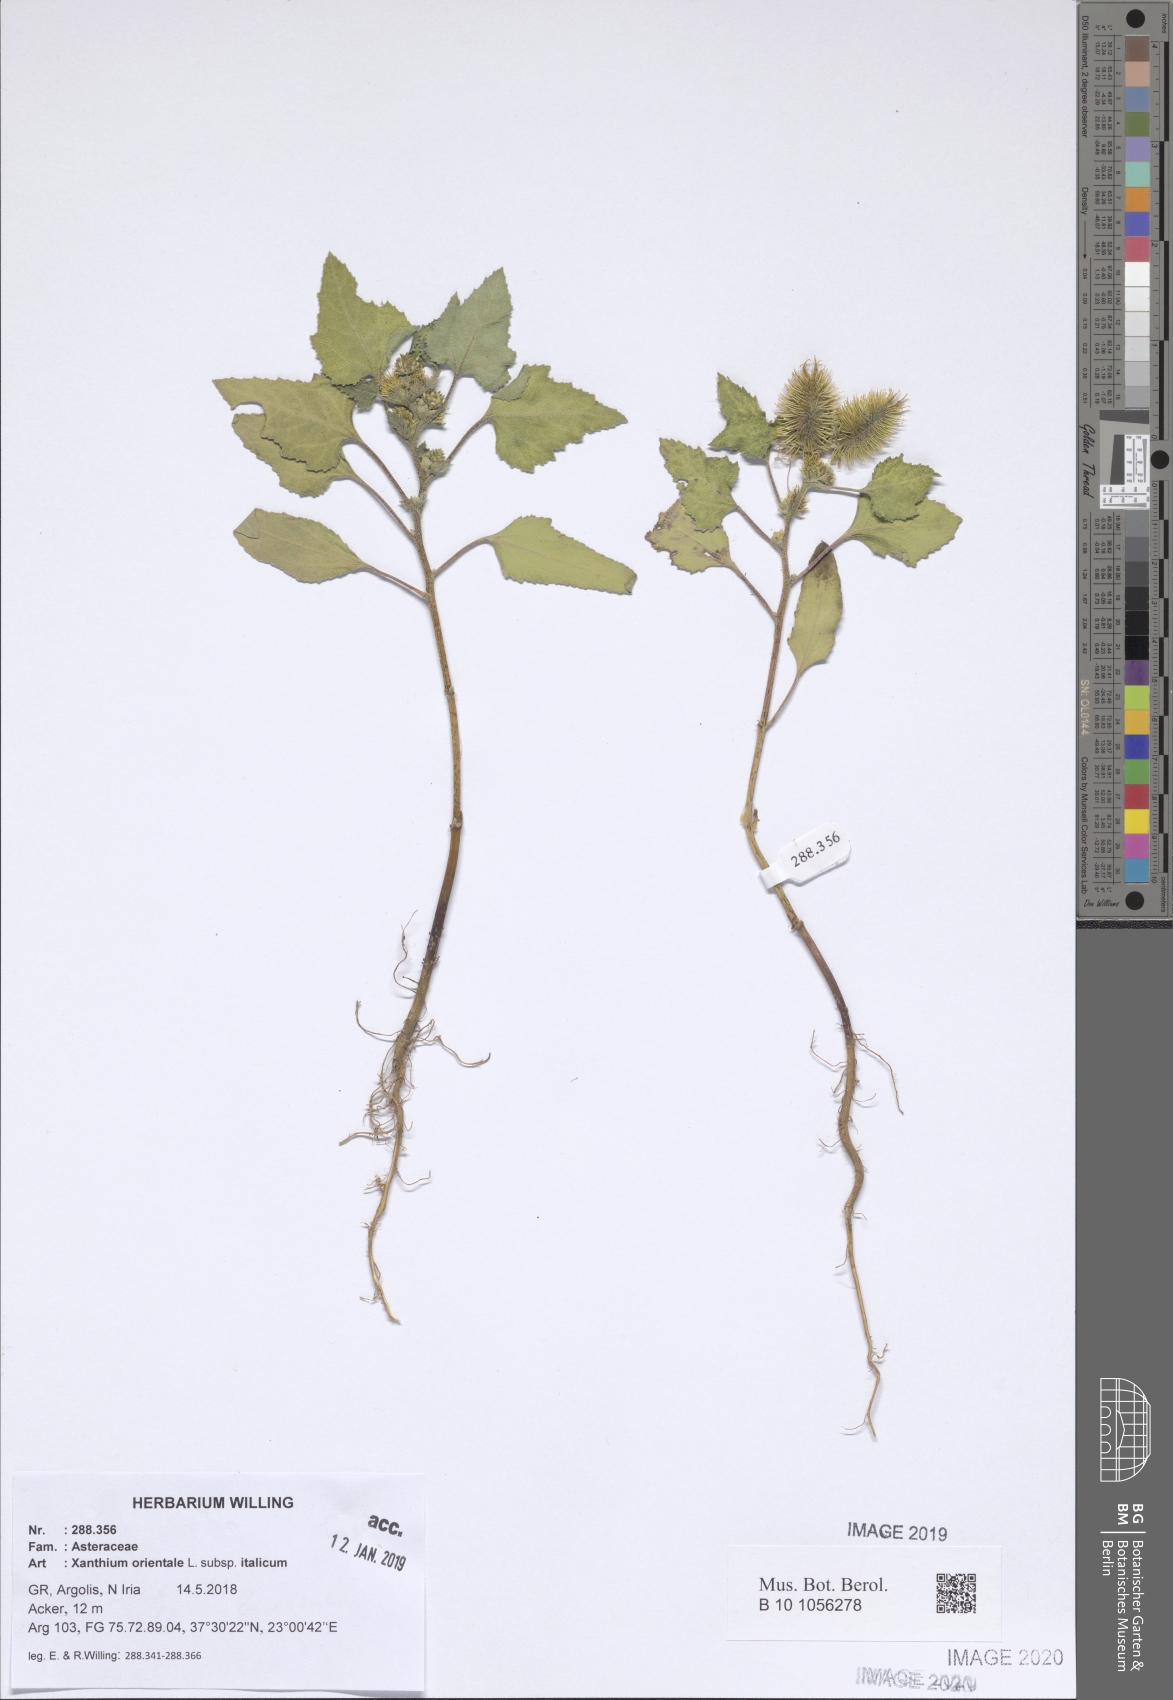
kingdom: Plantae
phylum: Tracheophyta
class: Magnoliopsida
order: Asterales
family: Asteraceae
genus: Xanthium
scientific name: Xanthium orientale
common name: Californian burr
